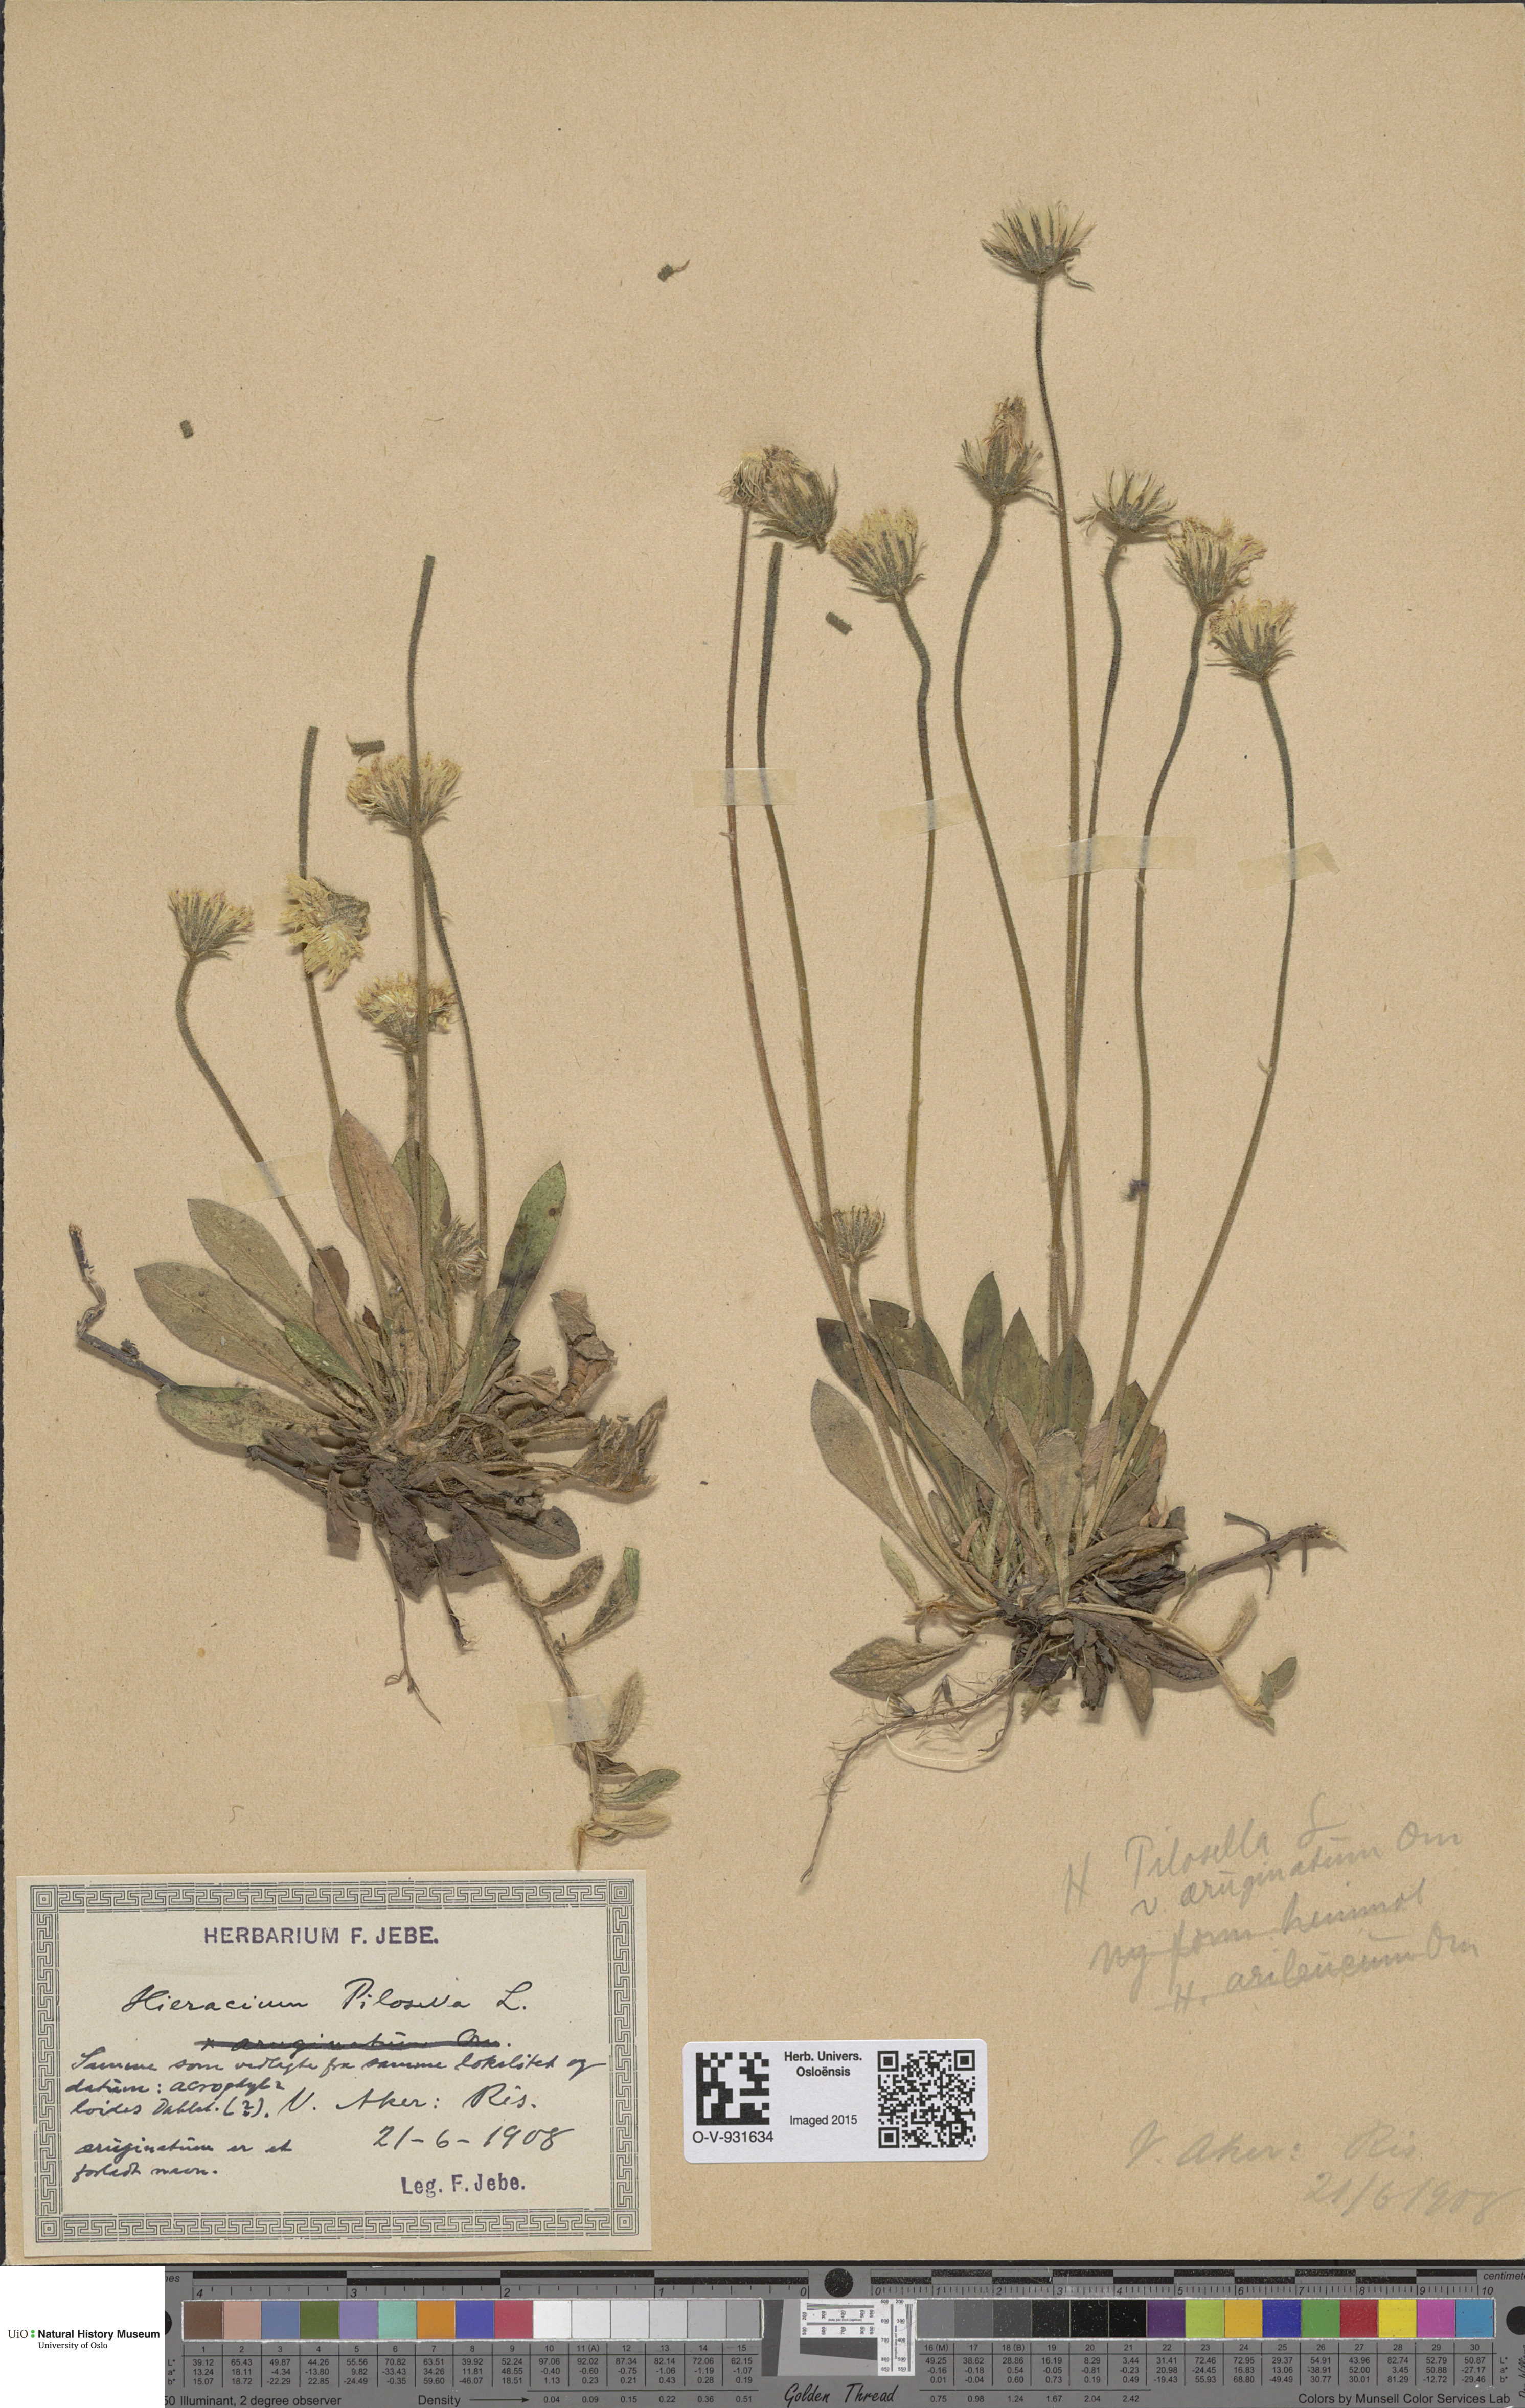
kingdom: Plantae
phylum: Tracheophyta
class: Magnoliopsida
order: Asterales
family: Asteraceae
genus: Pilosella
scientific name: Pilosella officinarum
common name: Mouse-ear hawkweed
